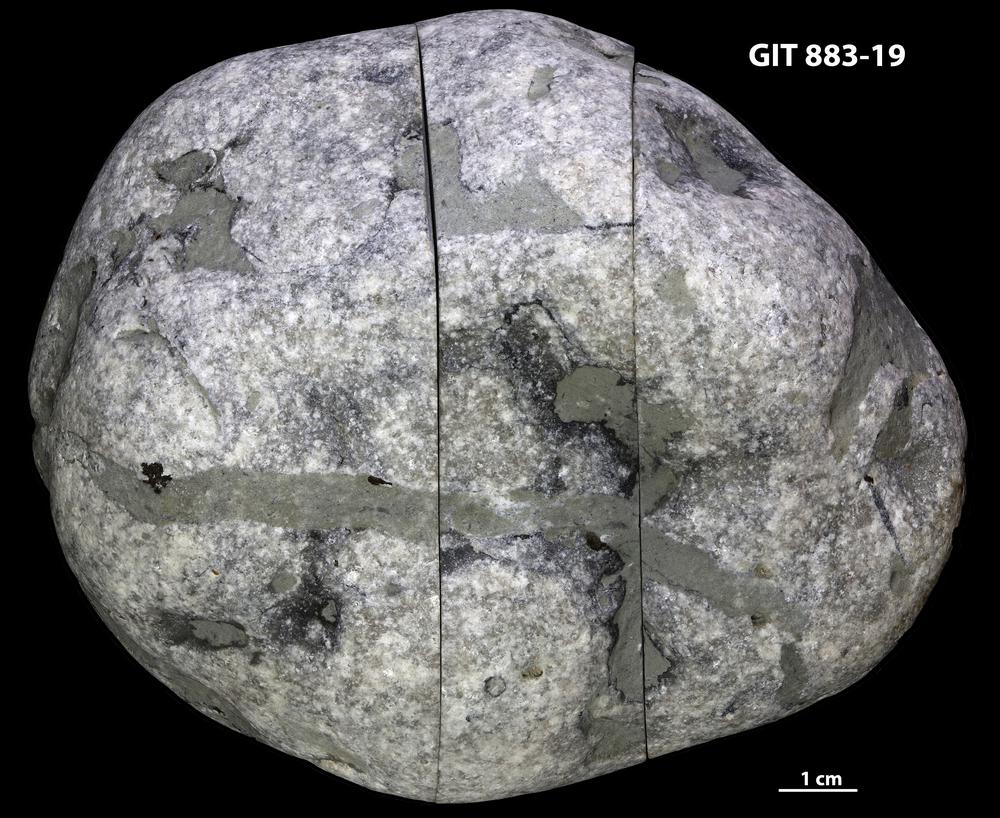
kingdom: Animalia
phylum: Porifera
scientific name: Porifera
